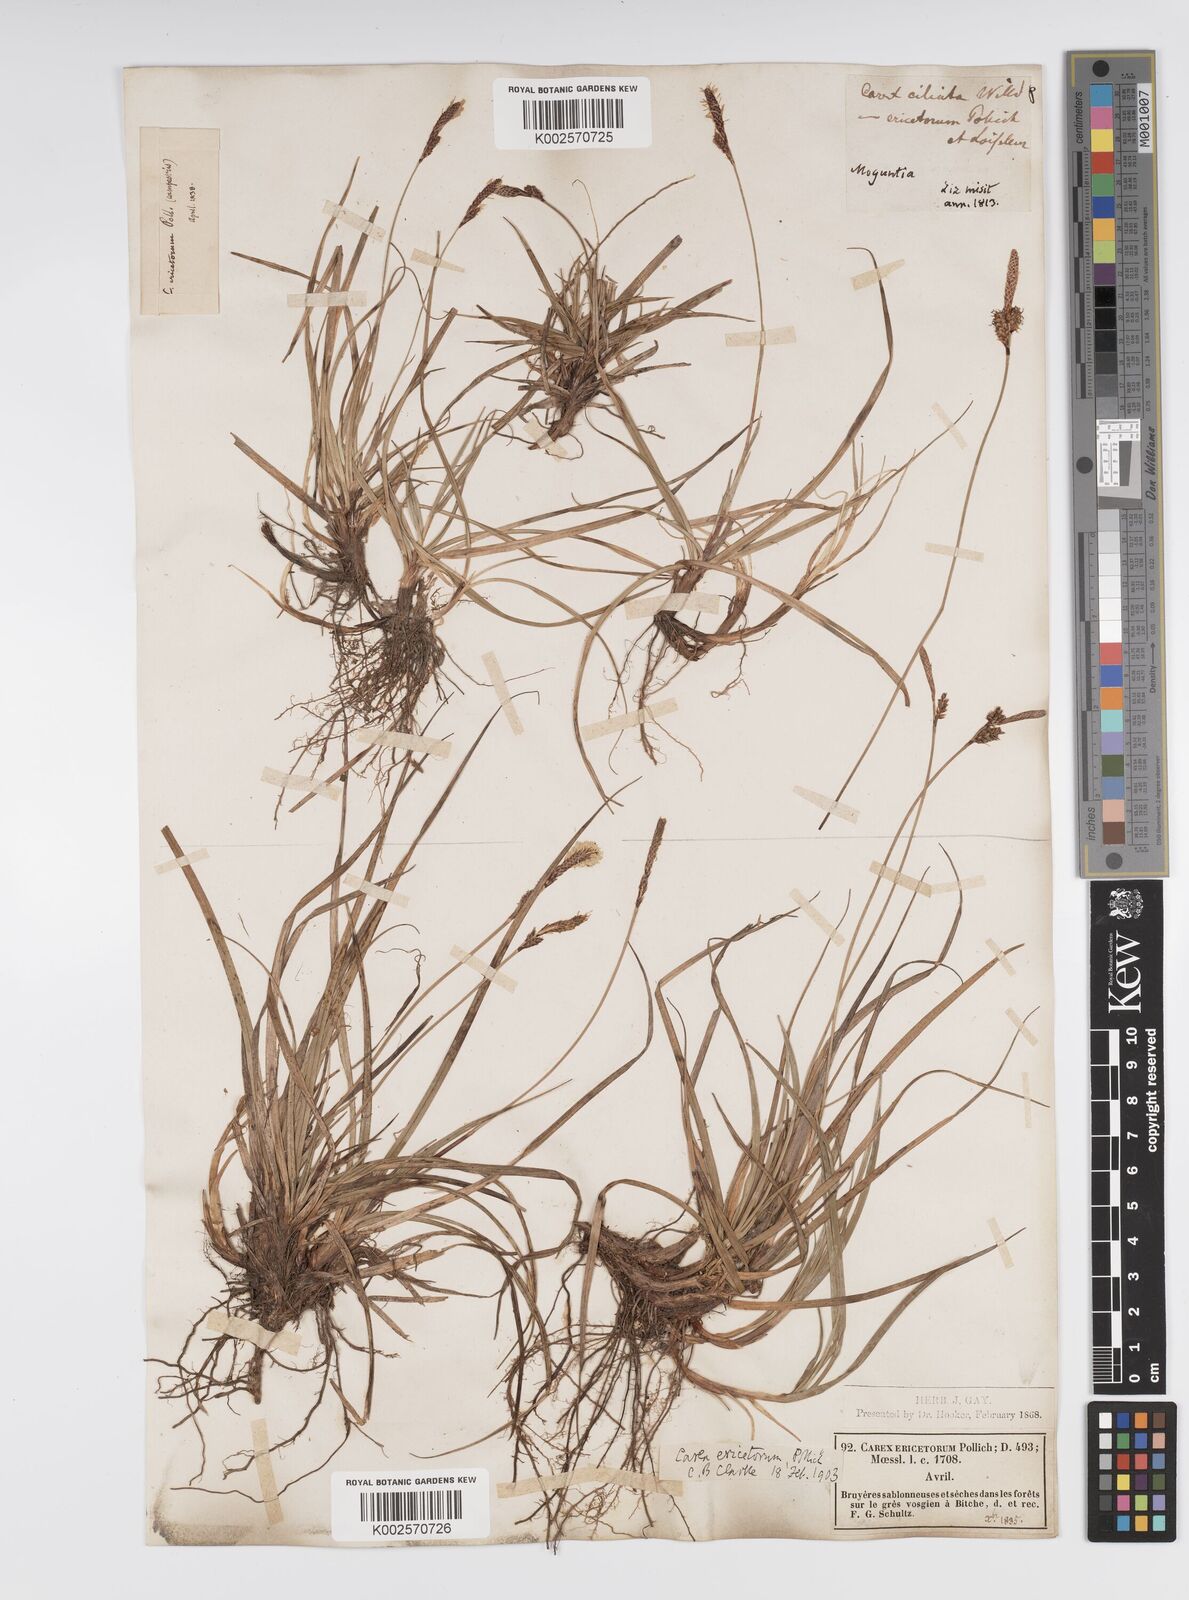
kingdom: Plantae
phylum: Tracheophyta
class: Liliopsida
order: Poales
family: Cyperaceae
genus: Carex
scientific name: Carex ericetorum
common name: Rare spring-sedge
